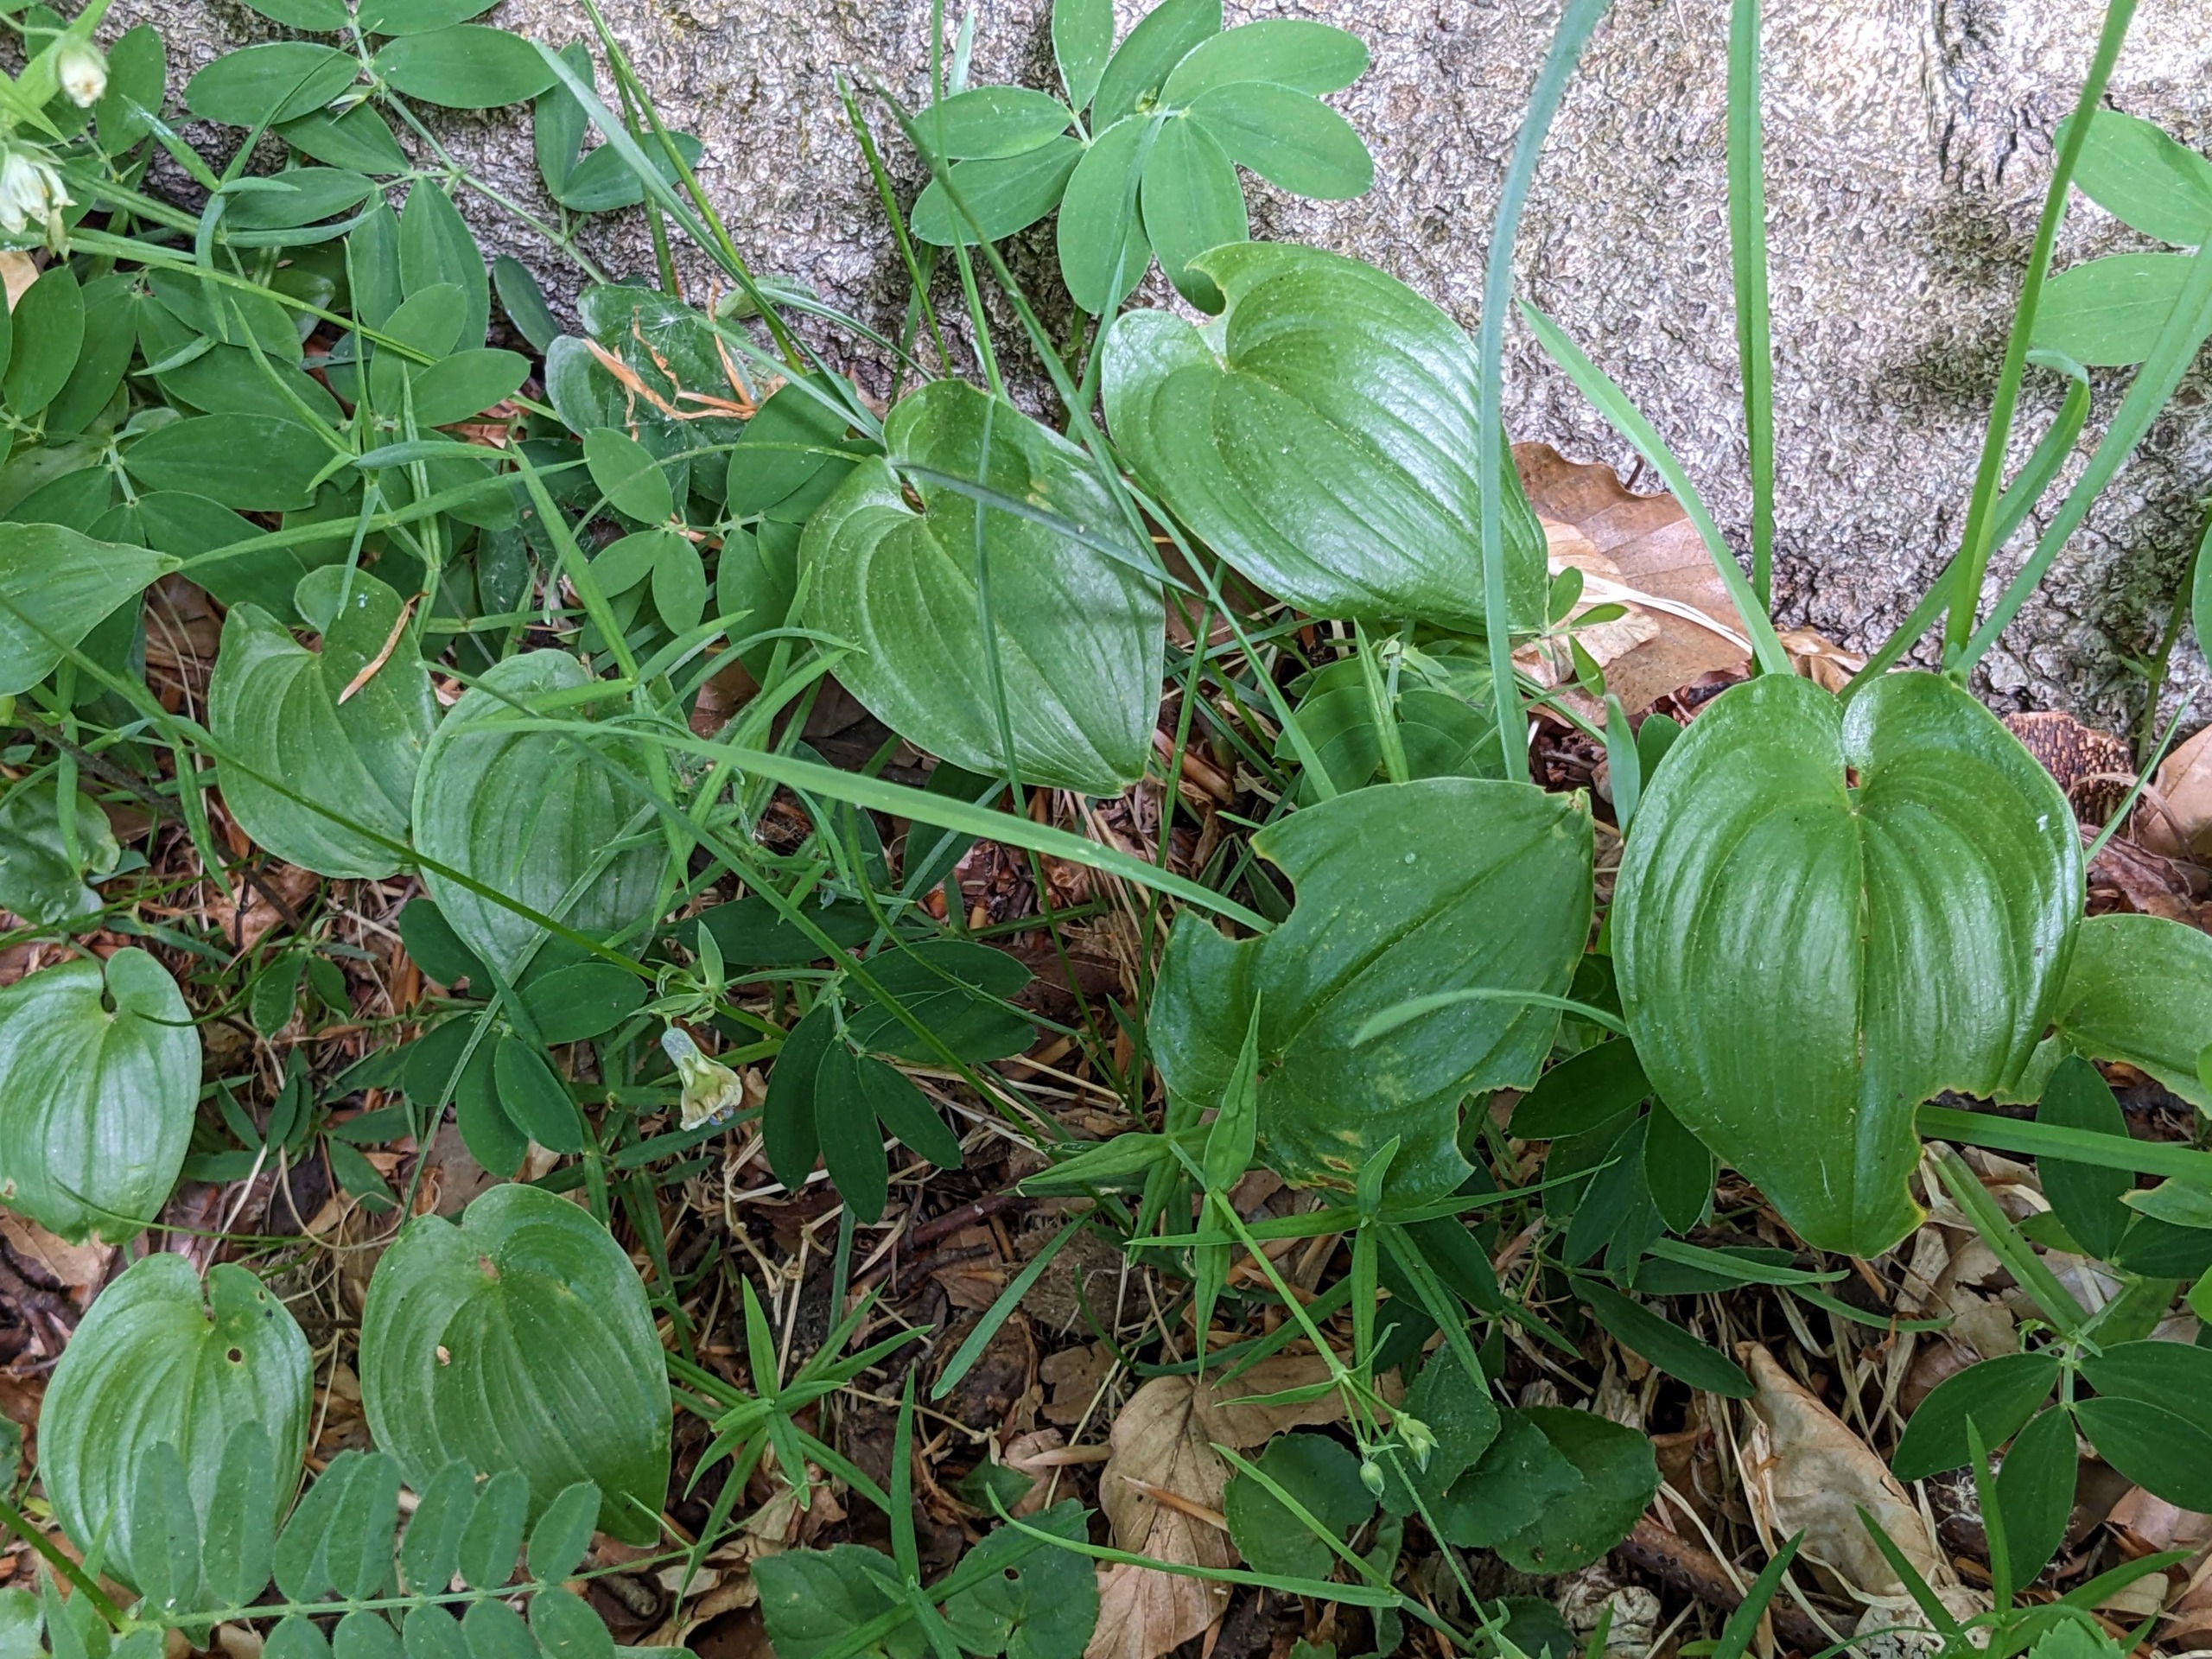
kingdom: Plantae
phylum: Tracheophyta
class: Liliopsida
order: Asparagales
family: Asparagaceae
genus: Maianthemum
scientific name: Maianthemum bifolium
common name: Majblomst
